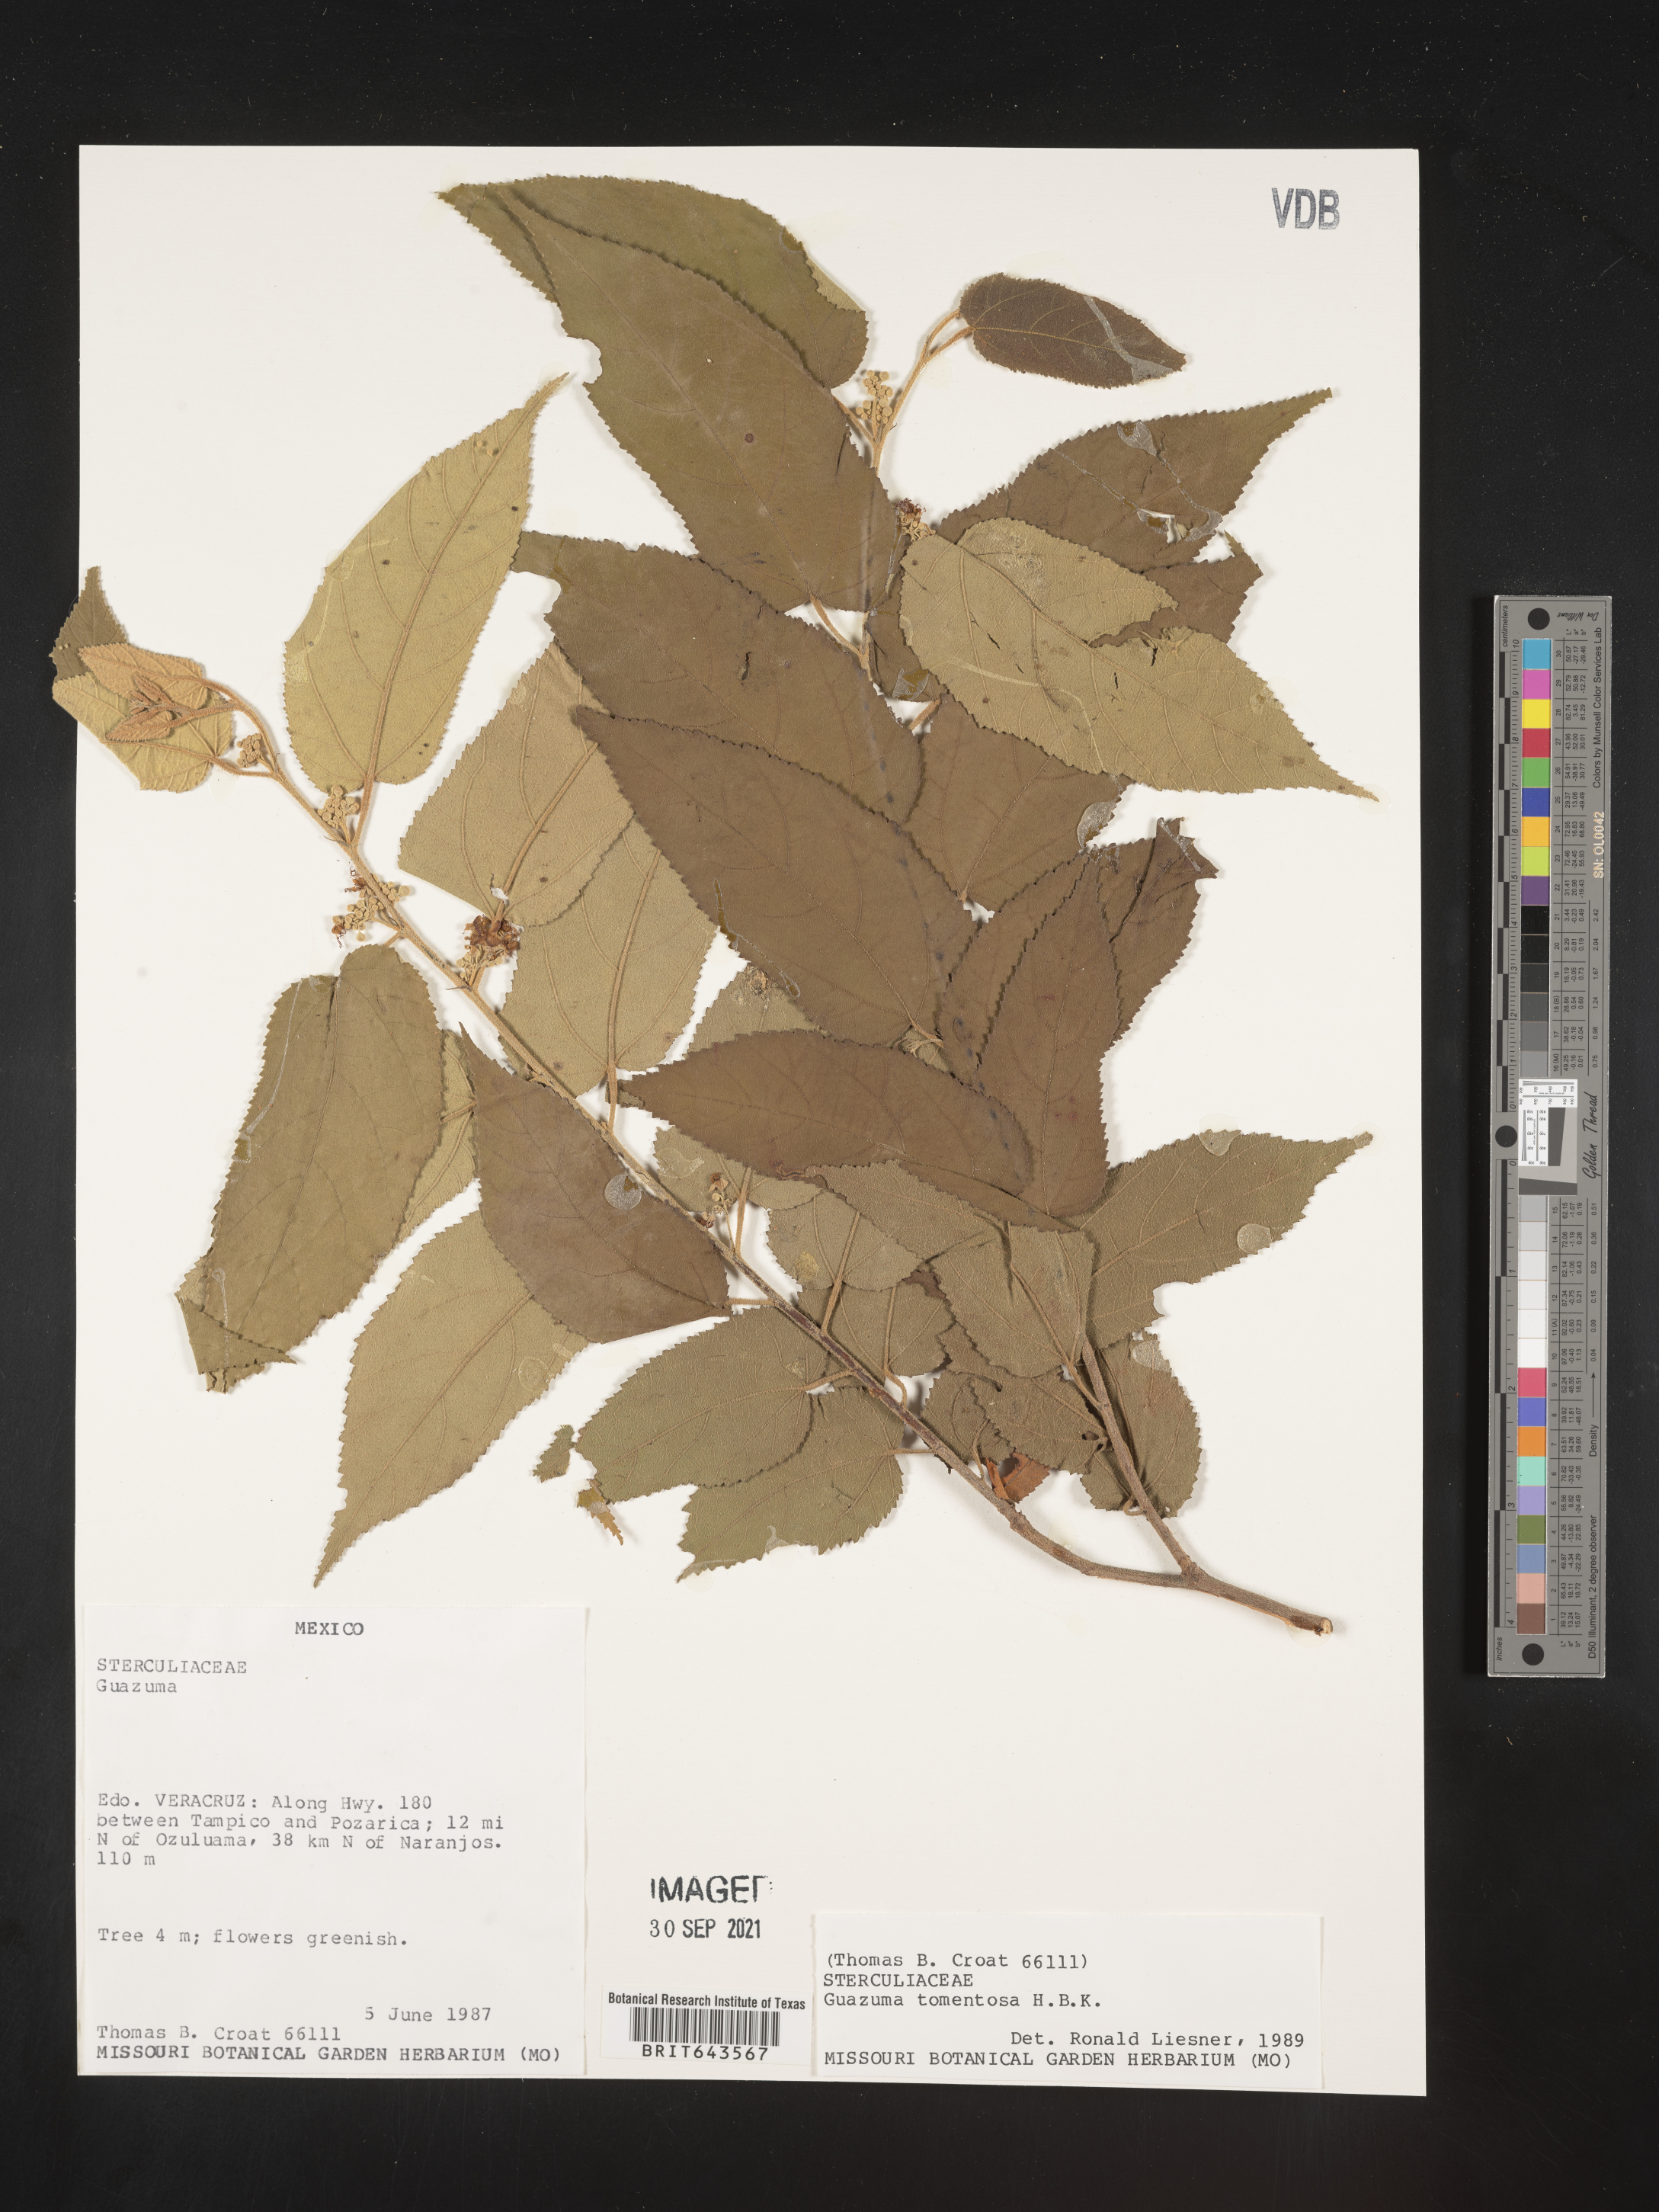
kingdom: Plantae
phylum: Tracheophyta
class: Magnoliopsida
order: Malvales
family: Malvaceae
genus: Guazuma
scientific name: Guazuma
